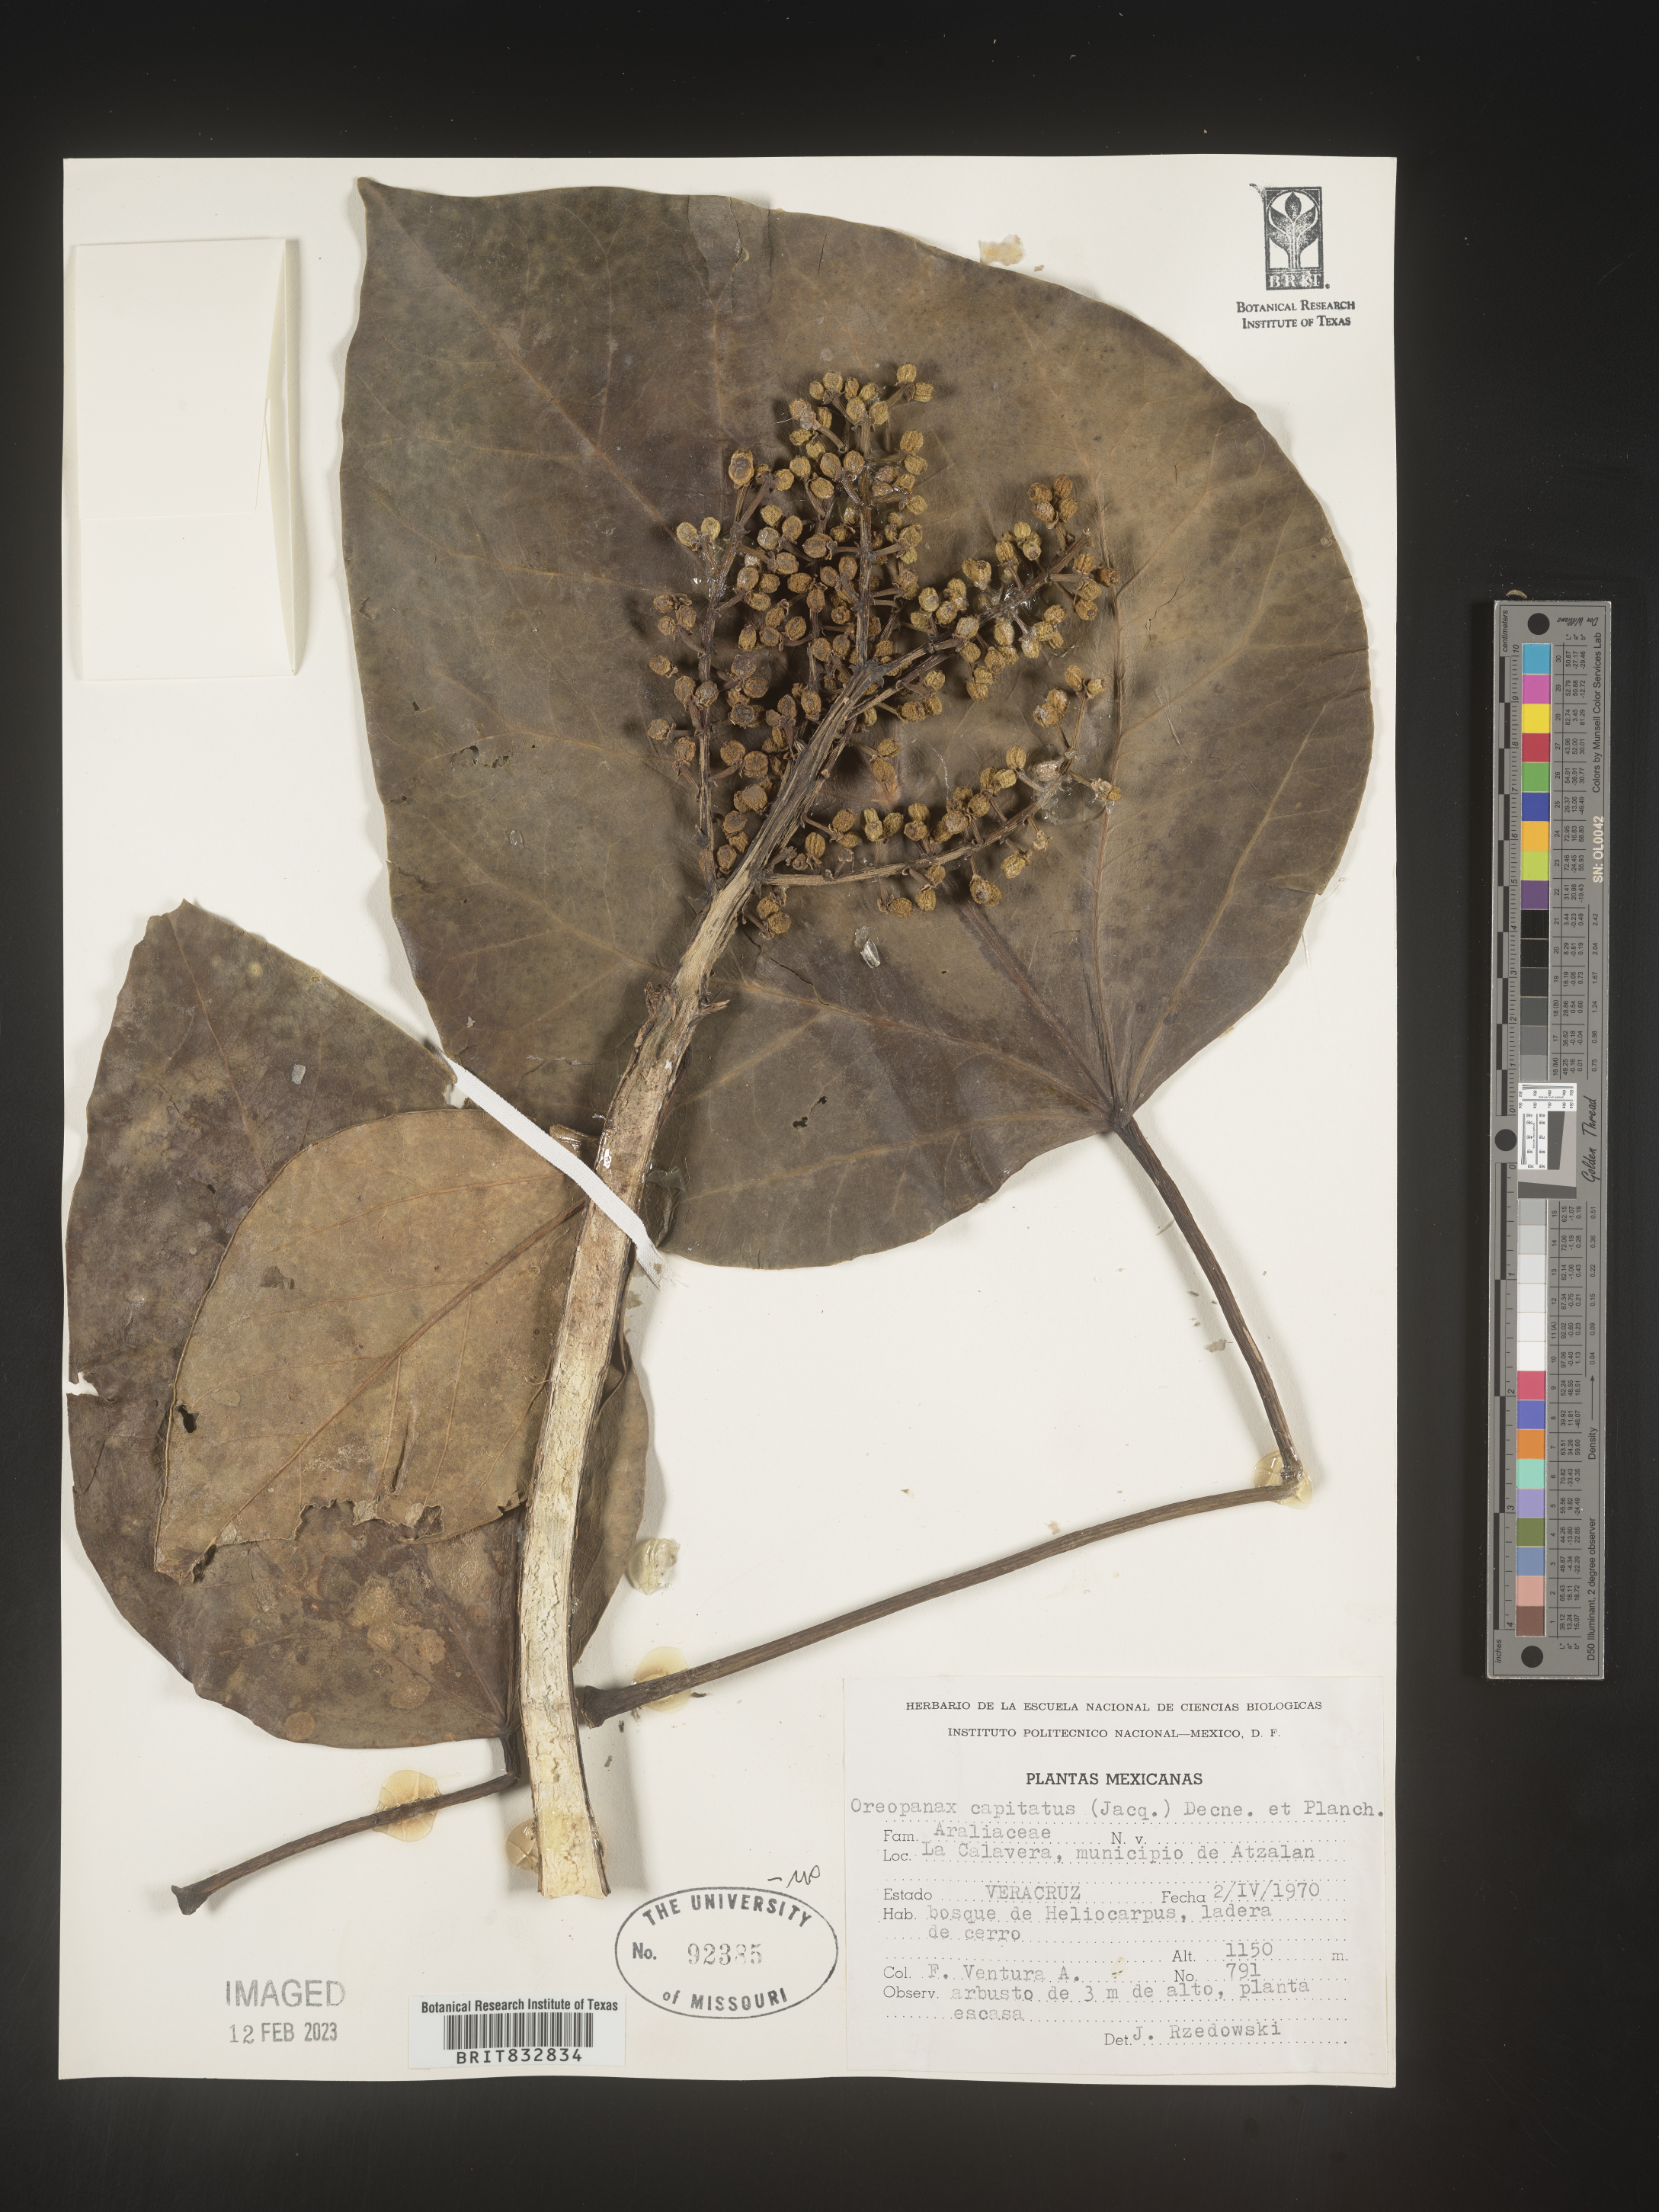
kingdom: Plantae
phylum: Tracheophyta
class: Magnoliopsida
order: Apiales
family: Araliaceae
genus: Oreopanax
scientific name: Oreopanax capitatus
